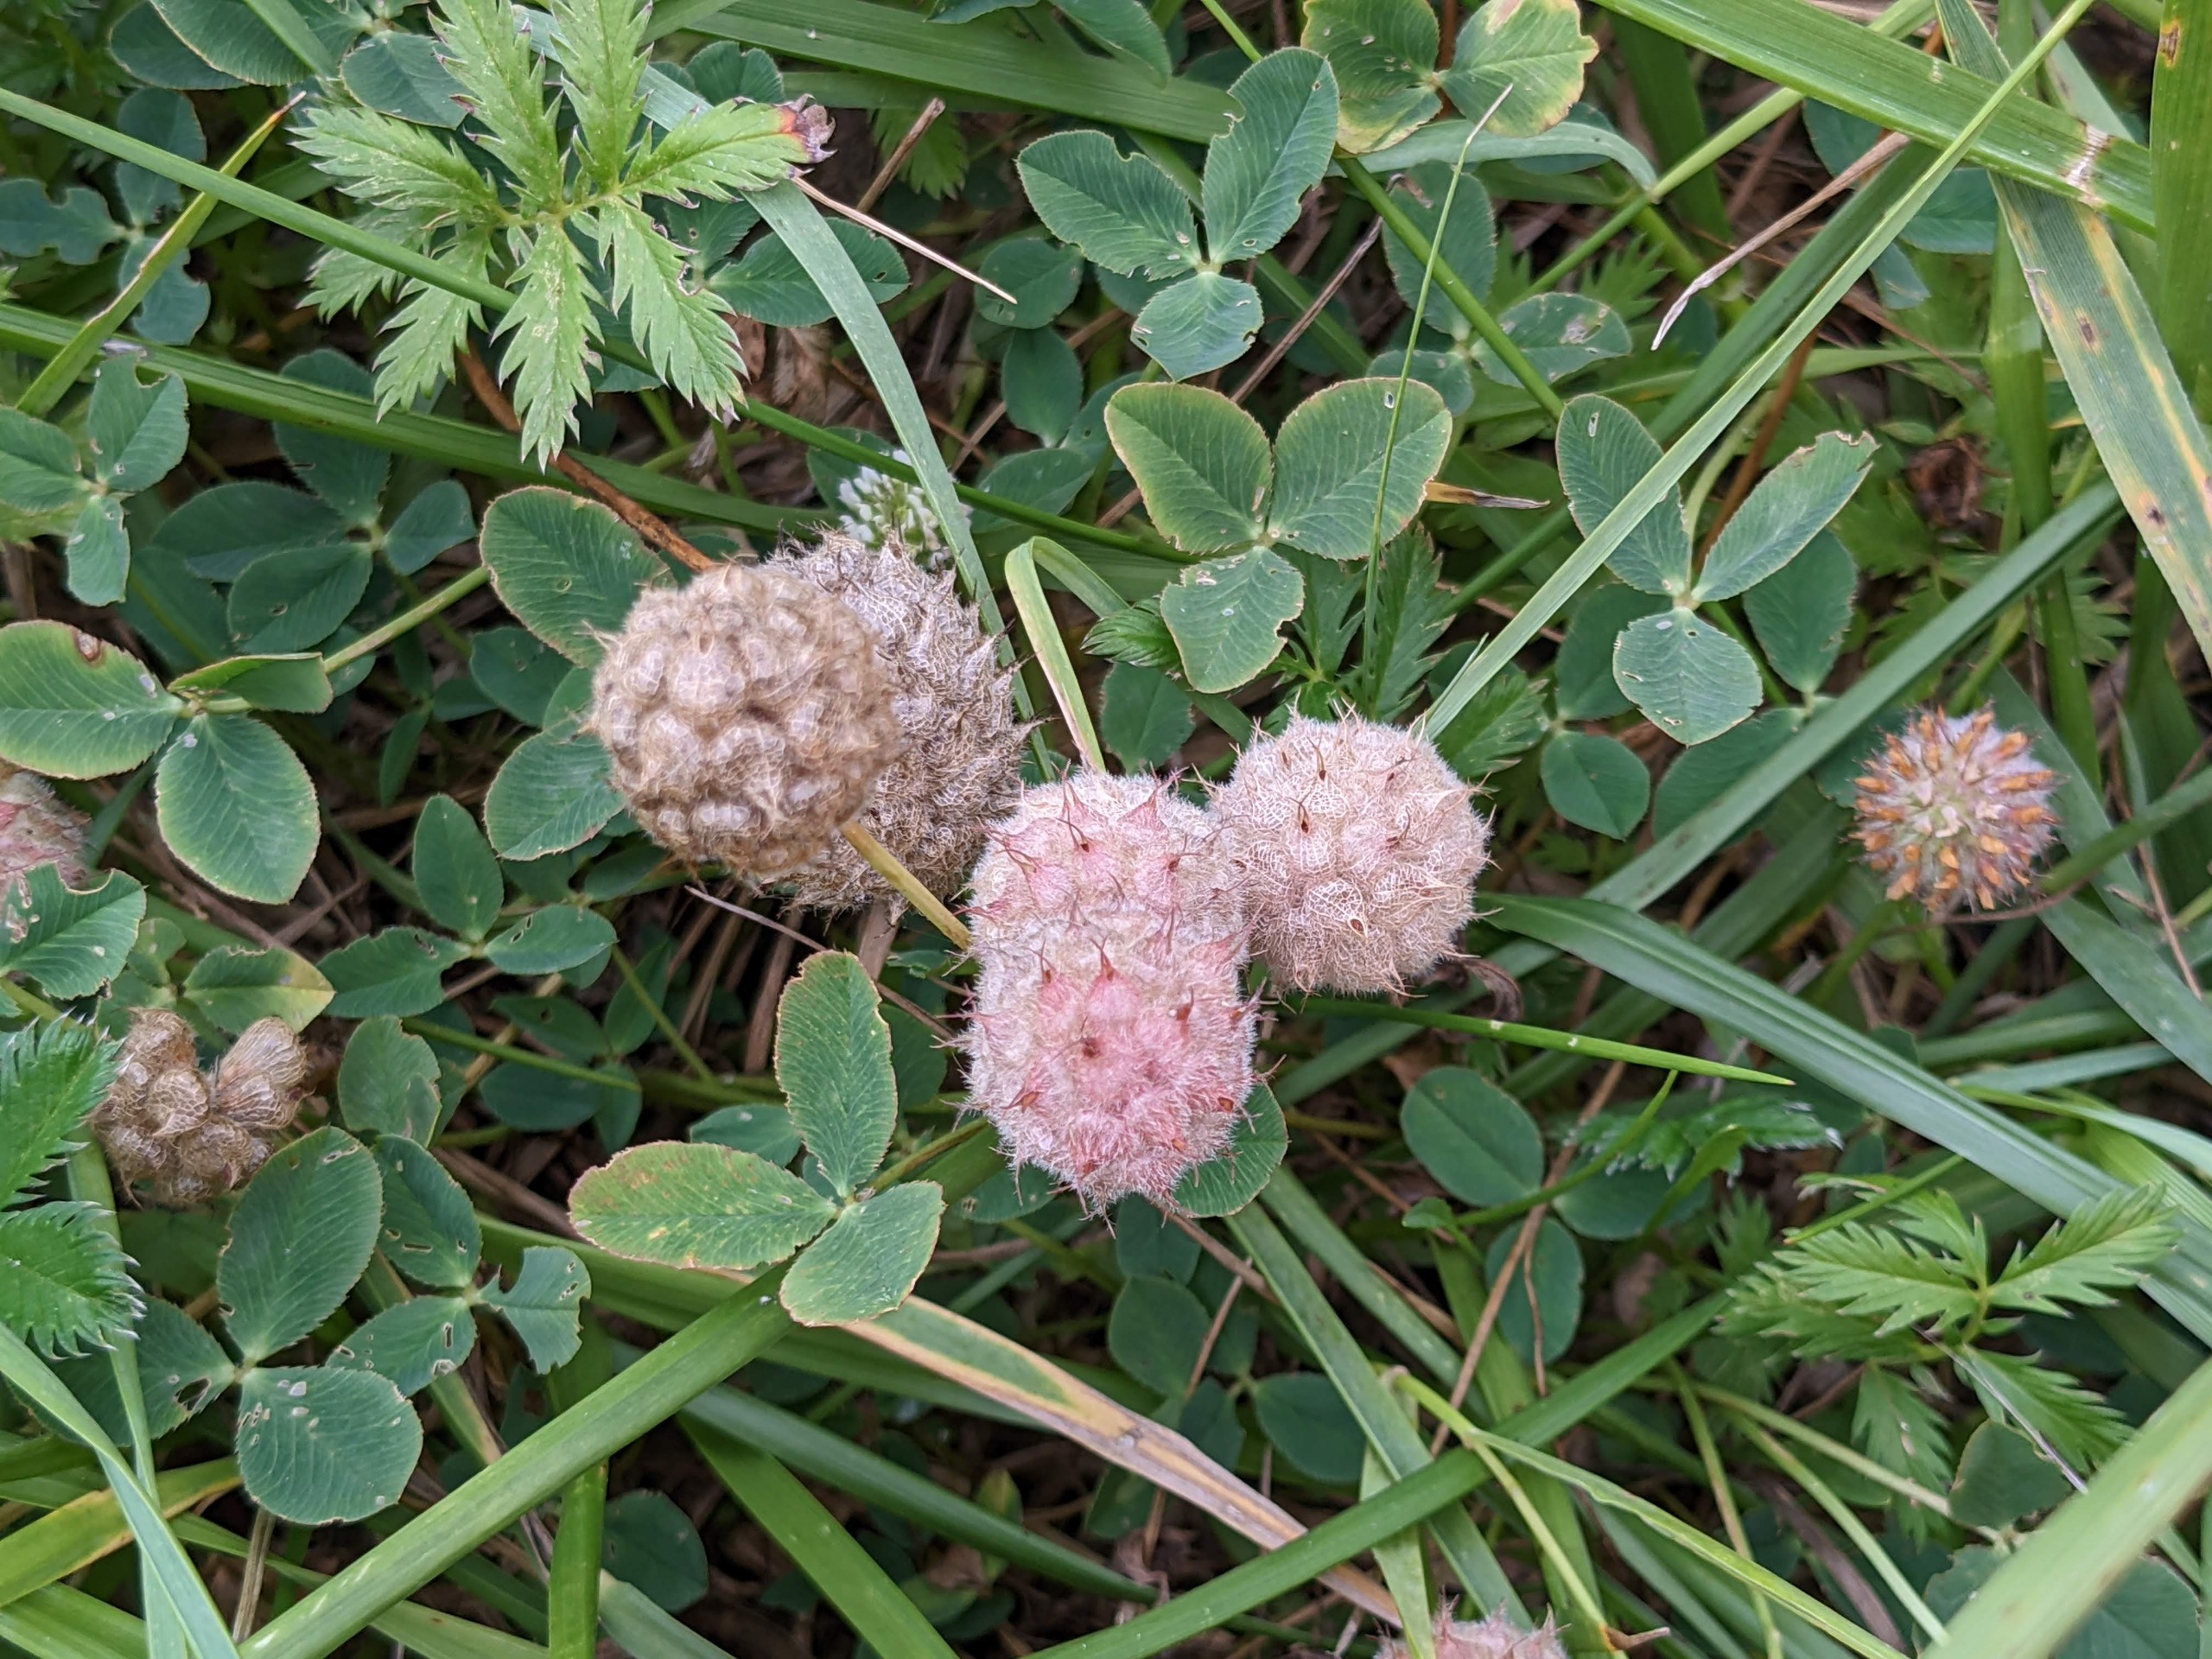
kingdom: Plantae
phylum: Tracheophyta
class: Magnoliopsida
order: Fabales
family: Fabaceae
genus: Trifolium
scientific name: Trifolium fragiferum
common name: Jordbær-kløver
